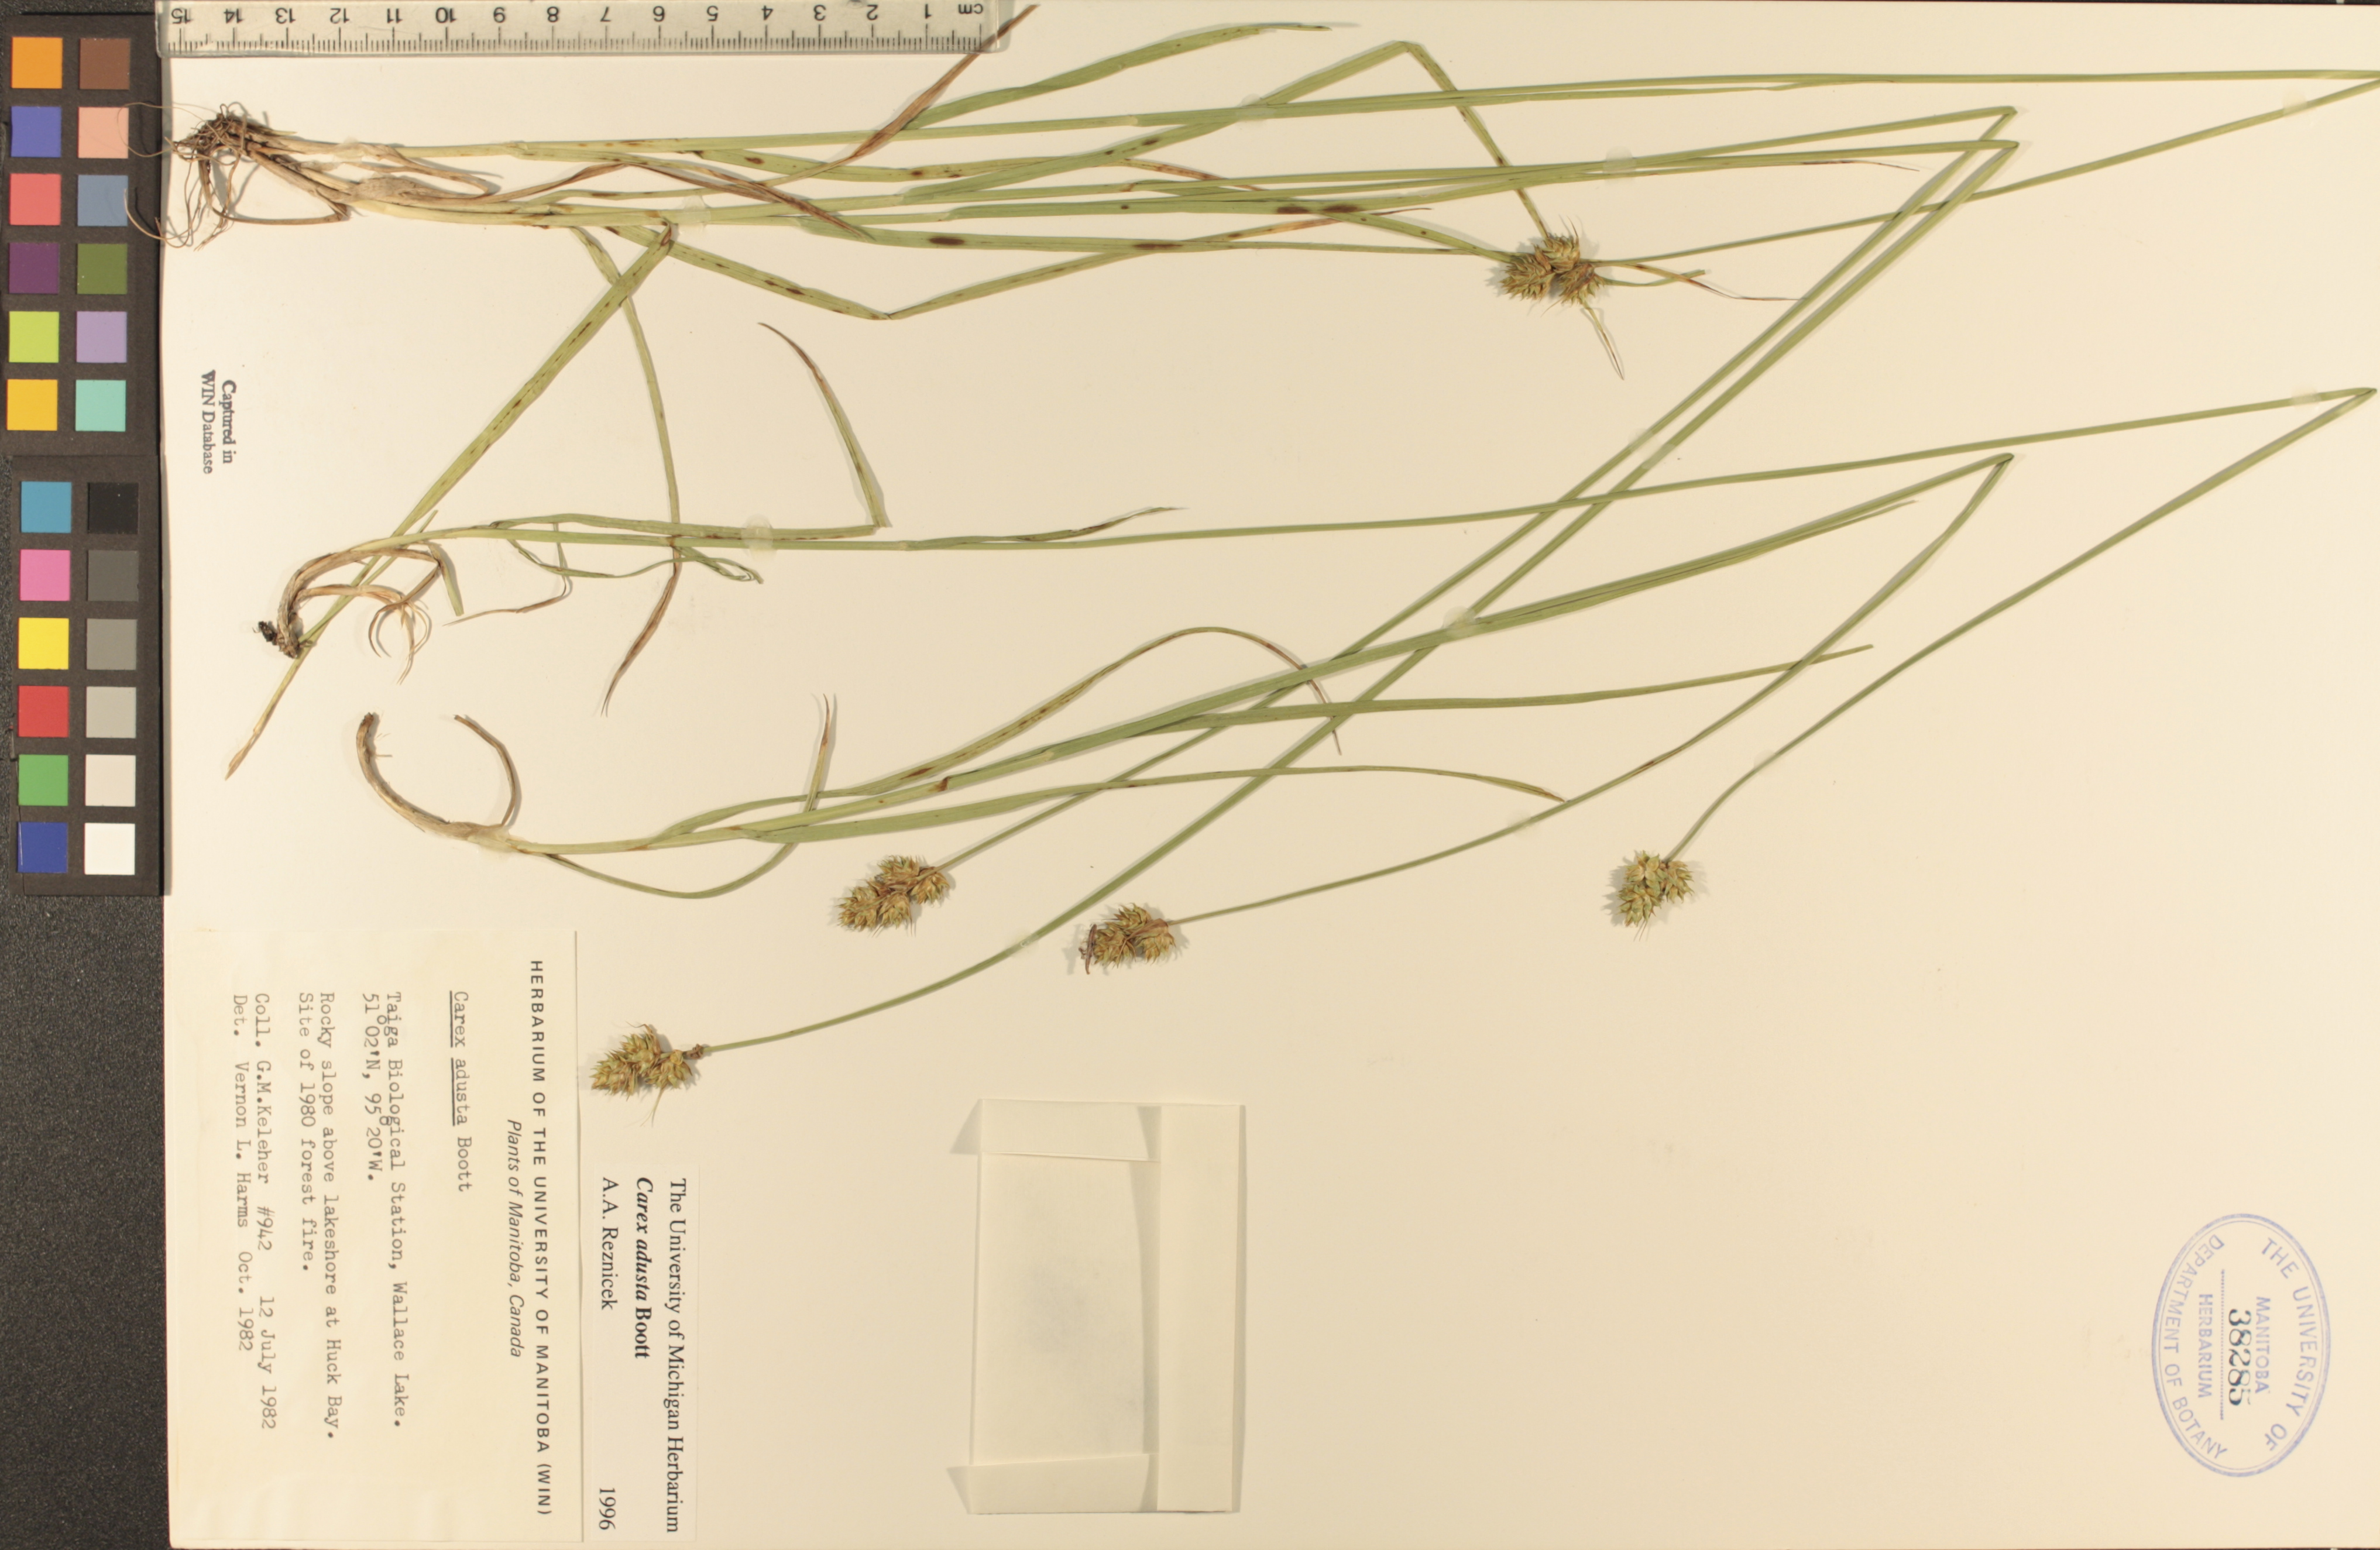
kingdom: Plantae
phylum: Tracheophyta
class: Liliopsida
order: Poales
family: Cyperaceae
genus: Carex
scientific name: Carex adusta
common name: Browned sedge
